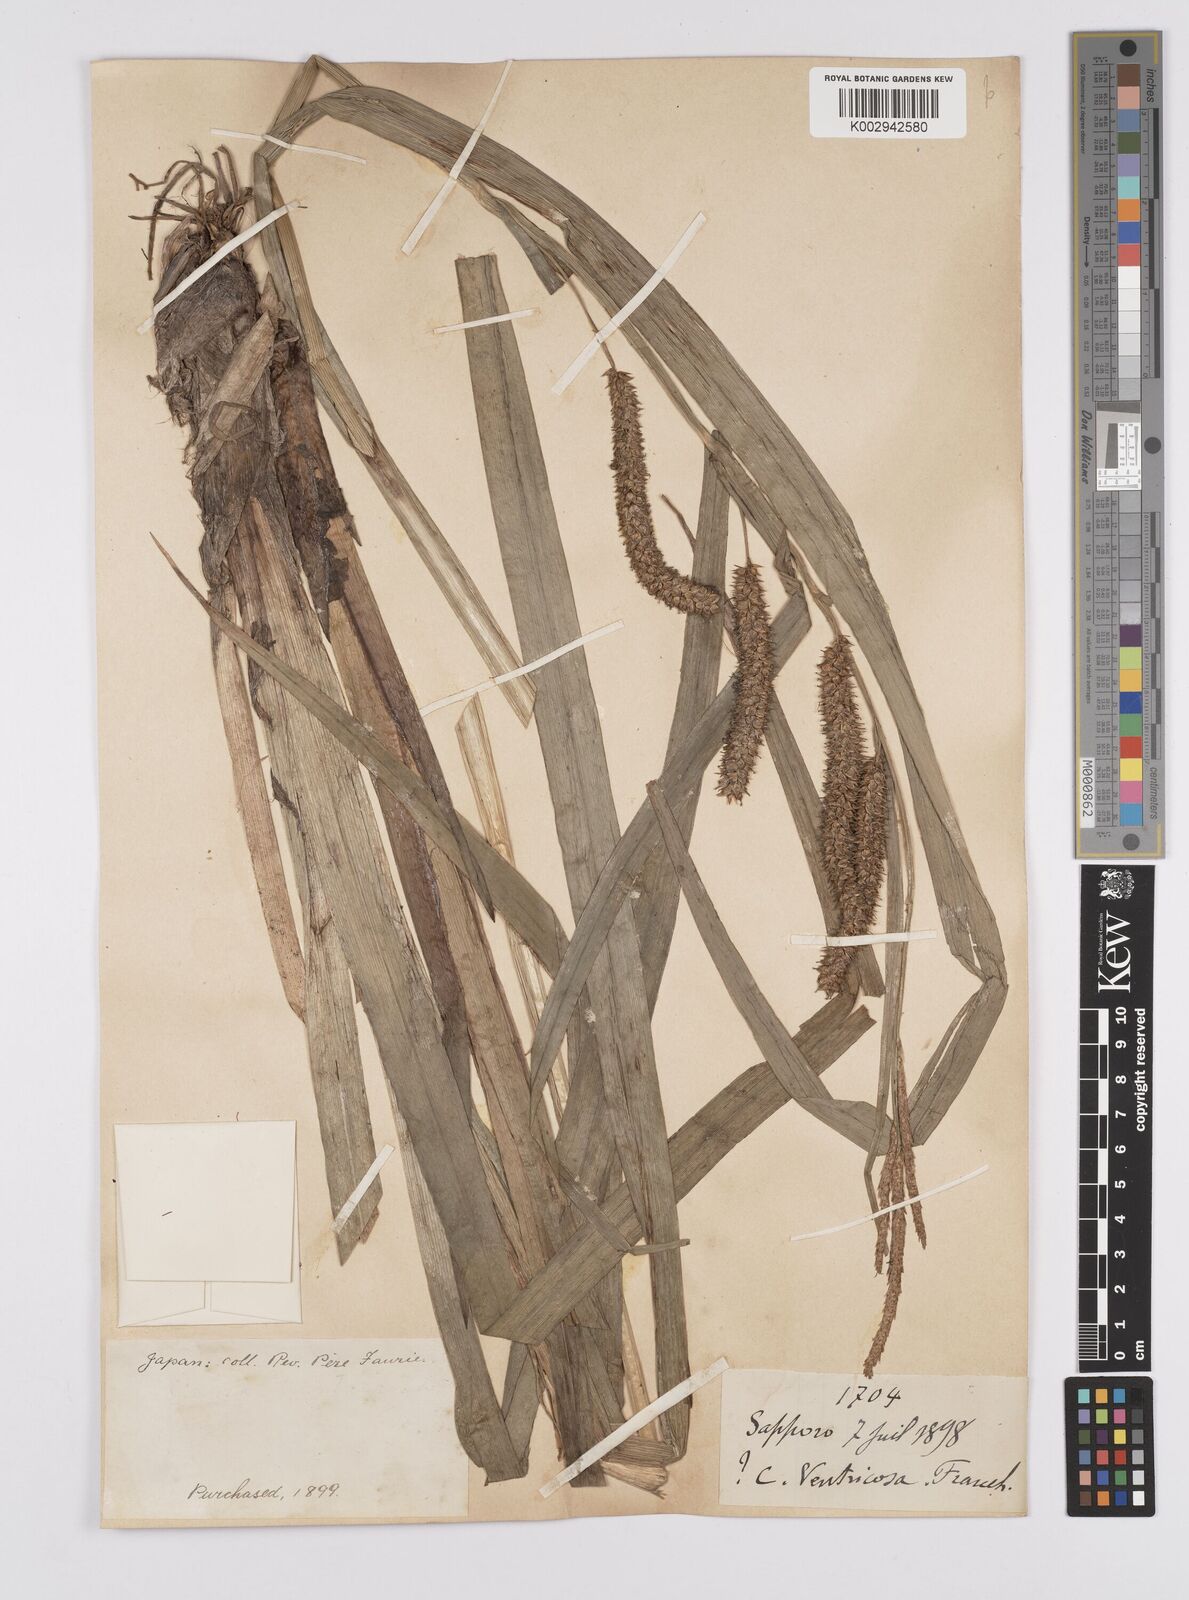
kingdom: Plantae
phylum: Tracheophyta
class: Liliopsida
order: Poales
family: Cyperaceae
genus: Carex
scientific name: Carex utriculata
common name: Beaked sedge
